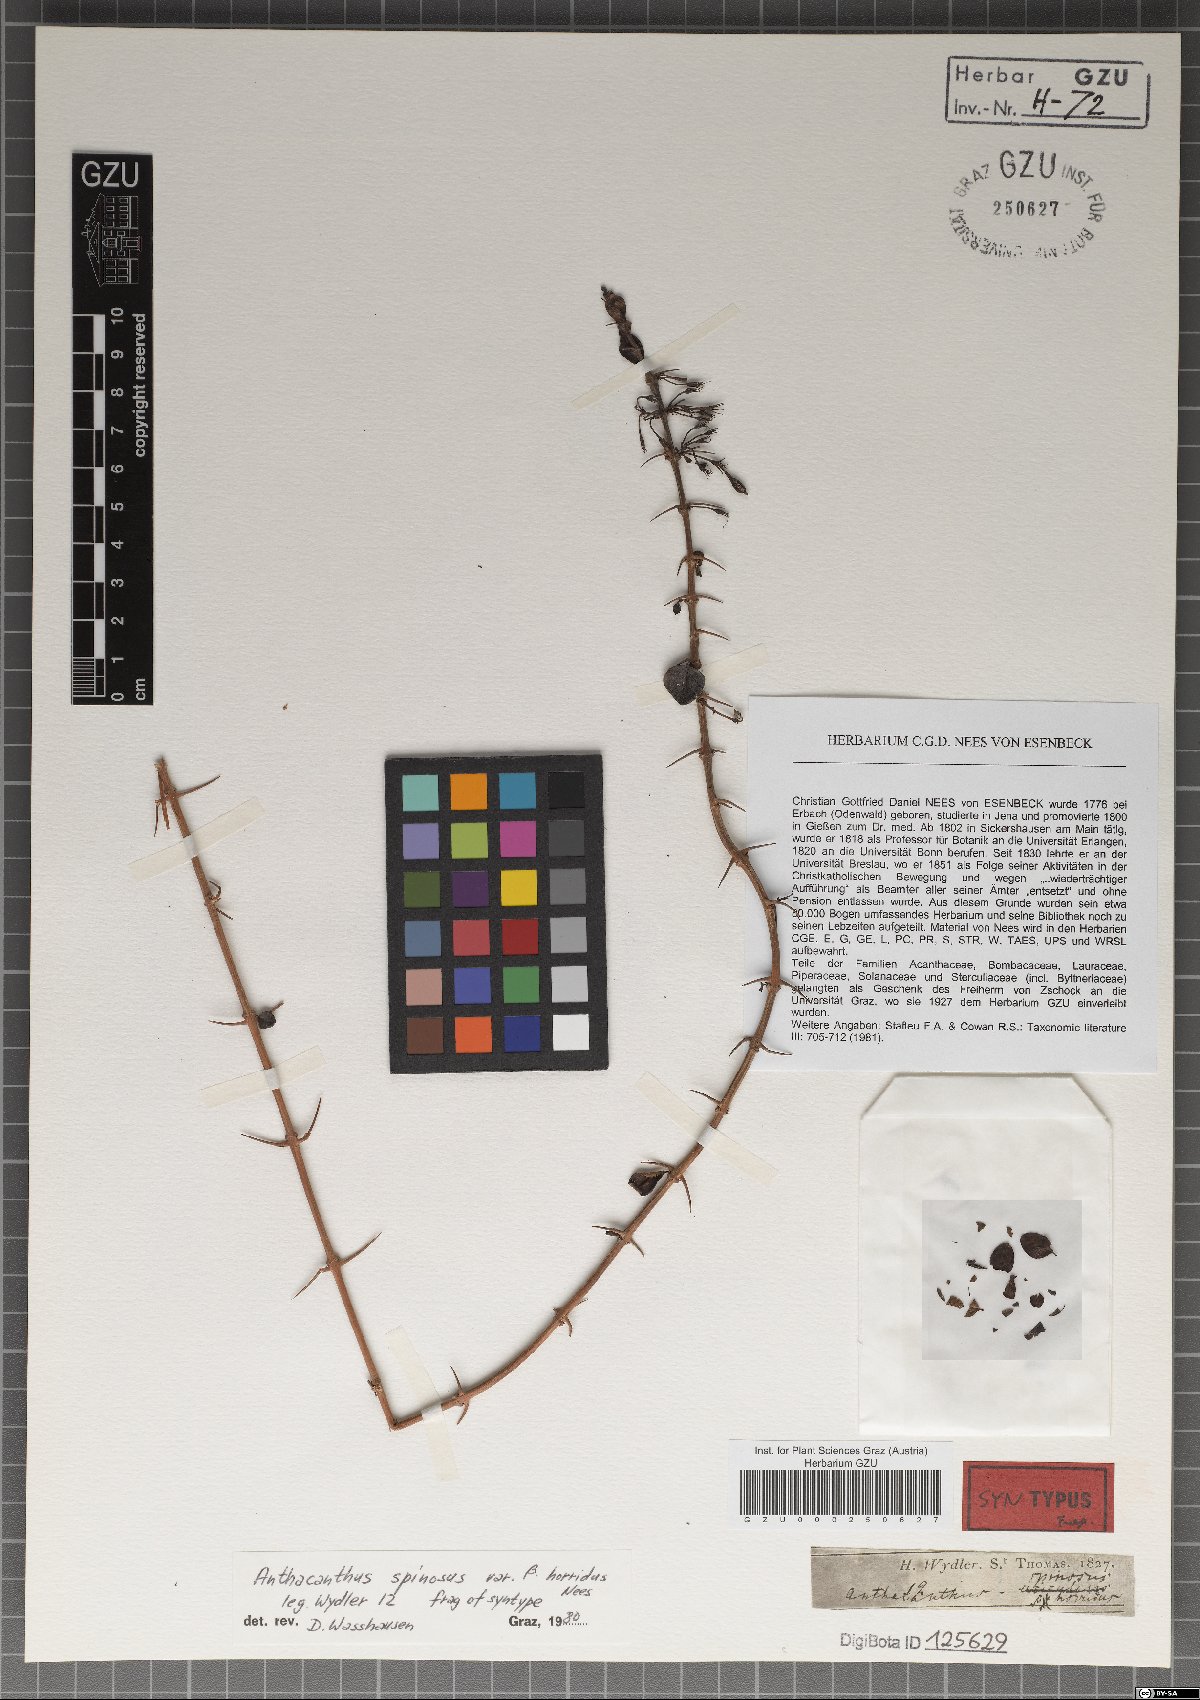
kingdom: Plantae
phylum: Tracheophyta
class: Magnoliopsida
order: Lamiales
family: Acanthaceae
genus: Oplonia
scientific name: Oplonia spinosa
